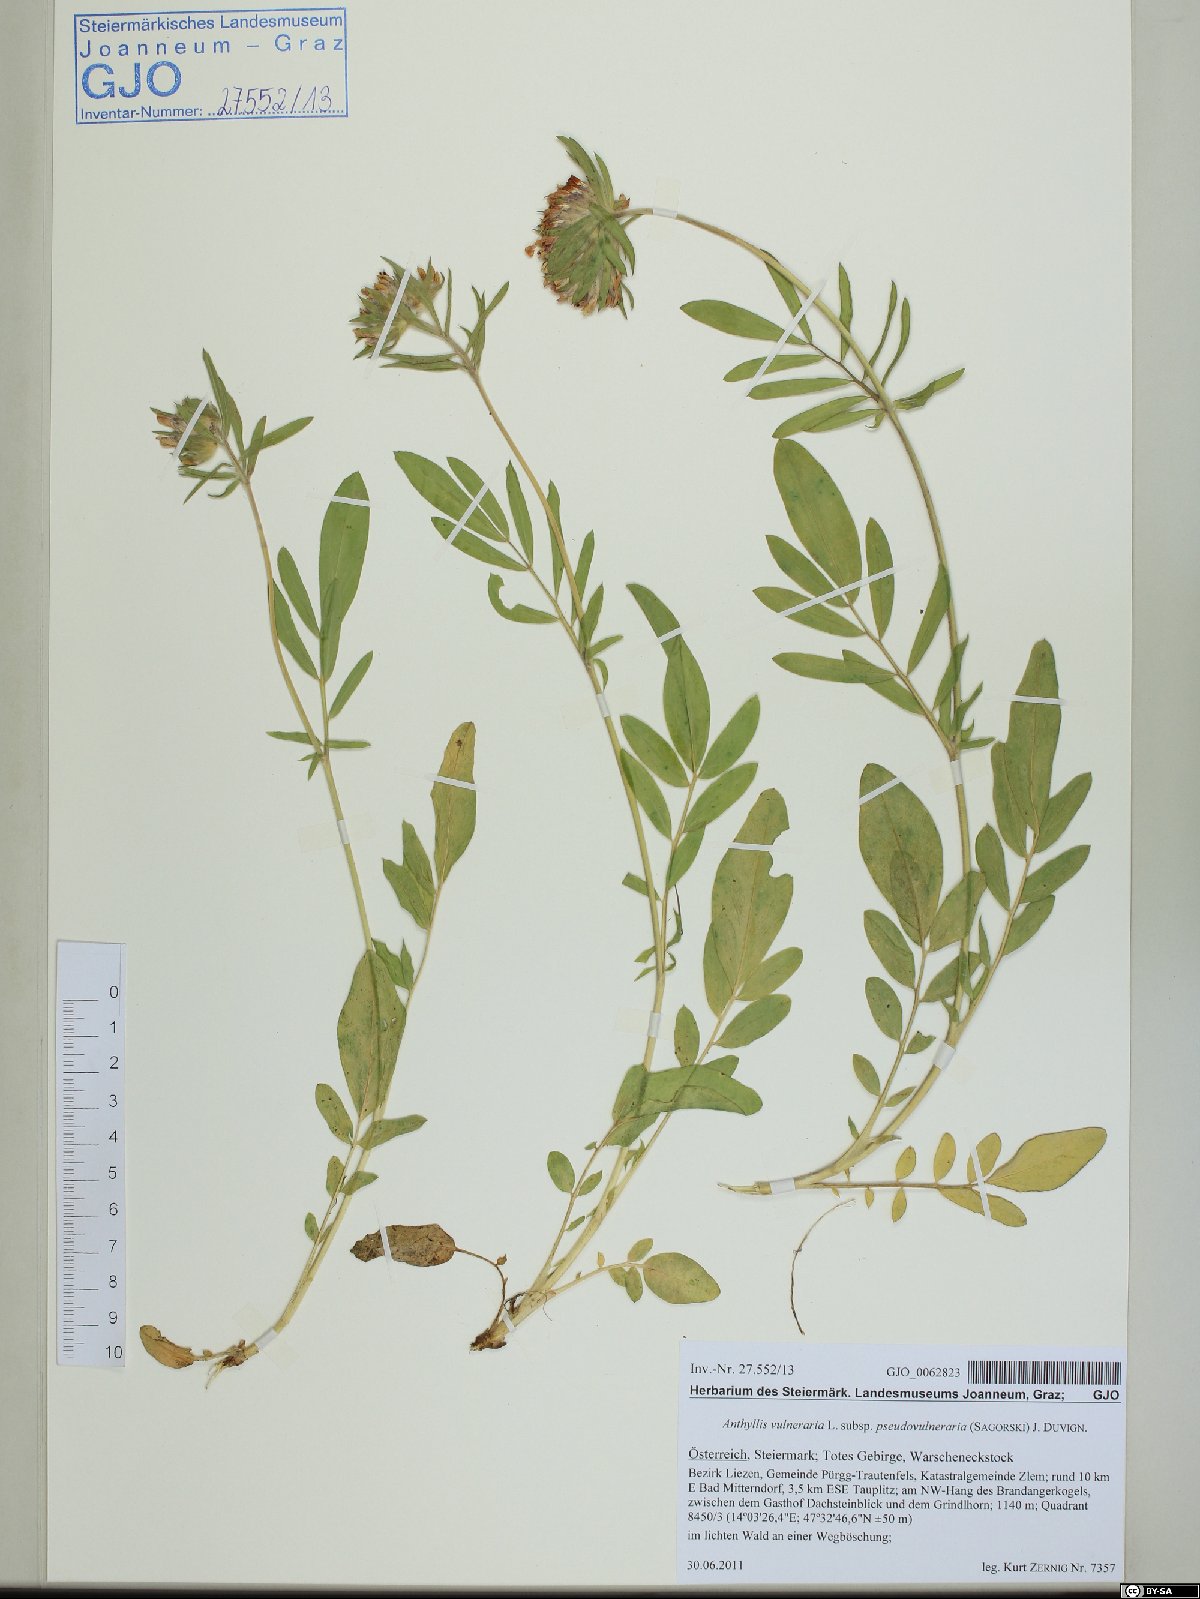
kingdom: Plantae
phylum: Tracheophyta
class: Magnoliopsida
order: Fabales
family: Fabaceae
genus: Anthyllis
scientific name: Anthyllis vulneraria
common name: Kidney vetch
